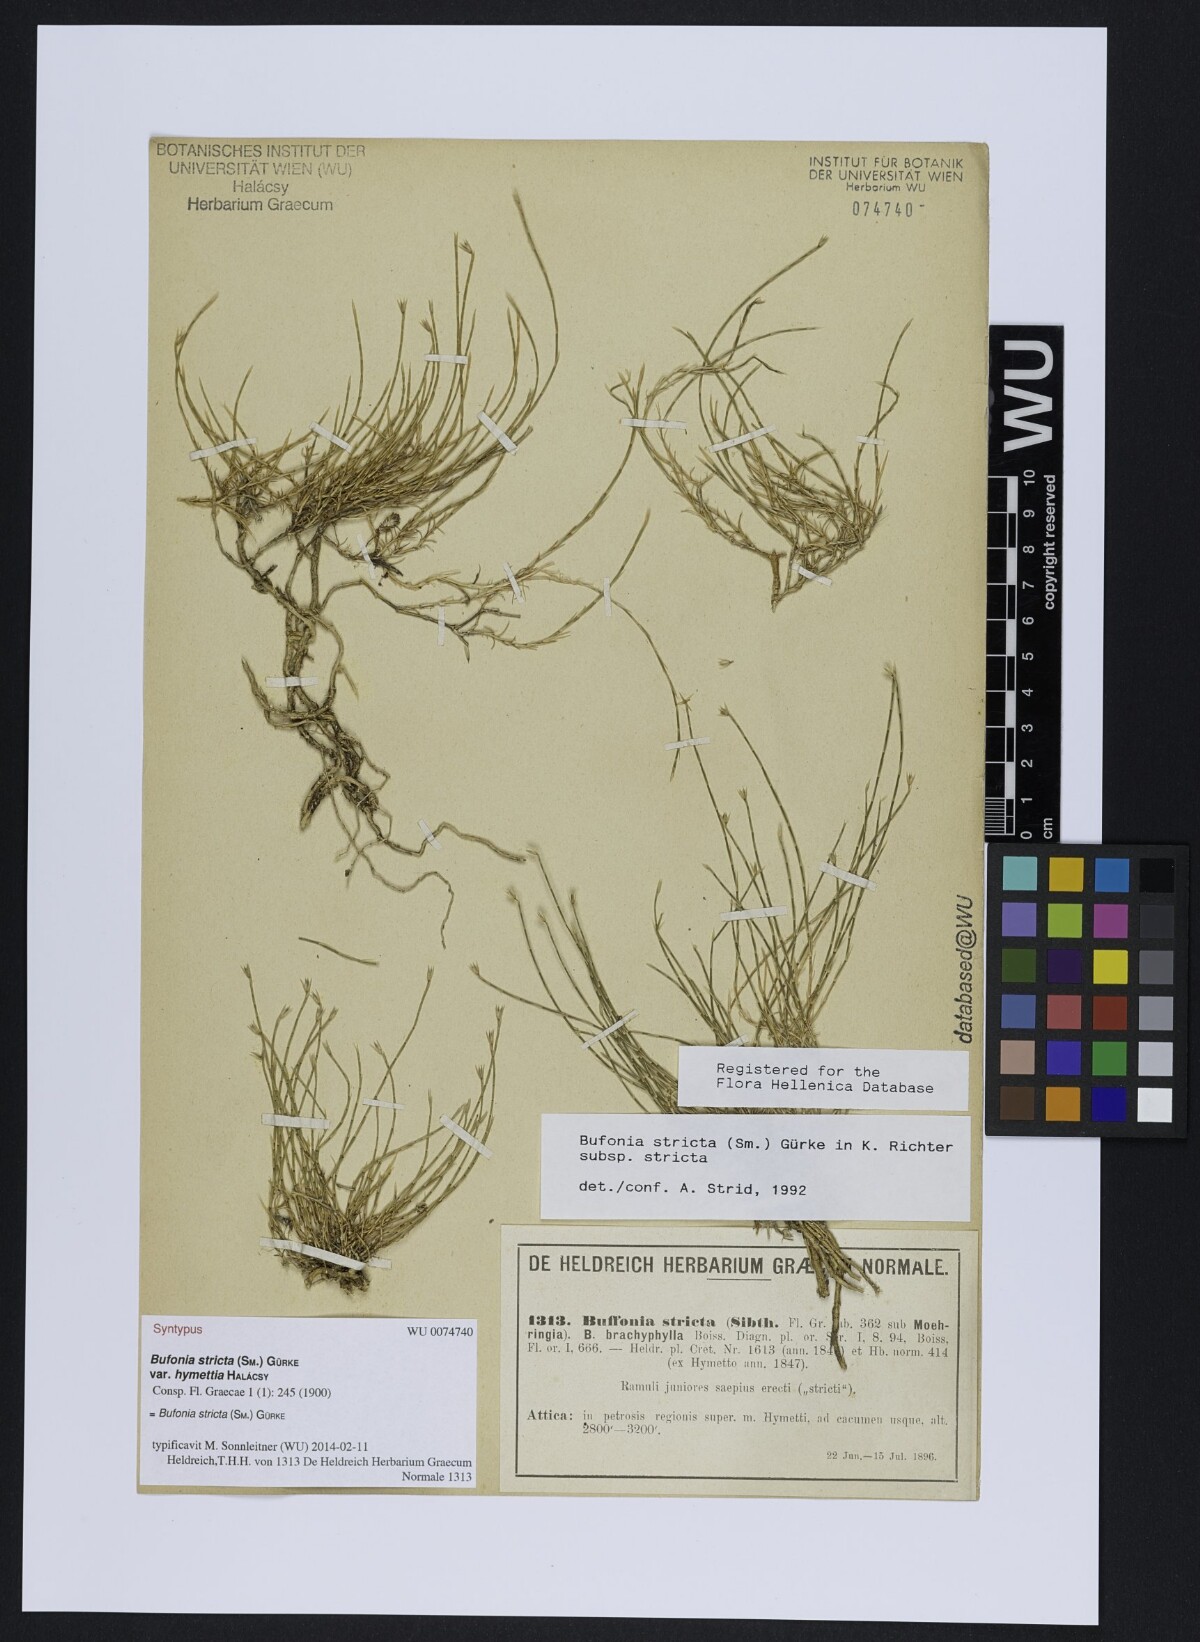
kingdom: Plantae
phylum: Tracheophyta
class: Magnoliopsida
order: Caryophyllales
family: Caryophyllaceae
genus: Bufonia
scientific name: Bufonia stricta
